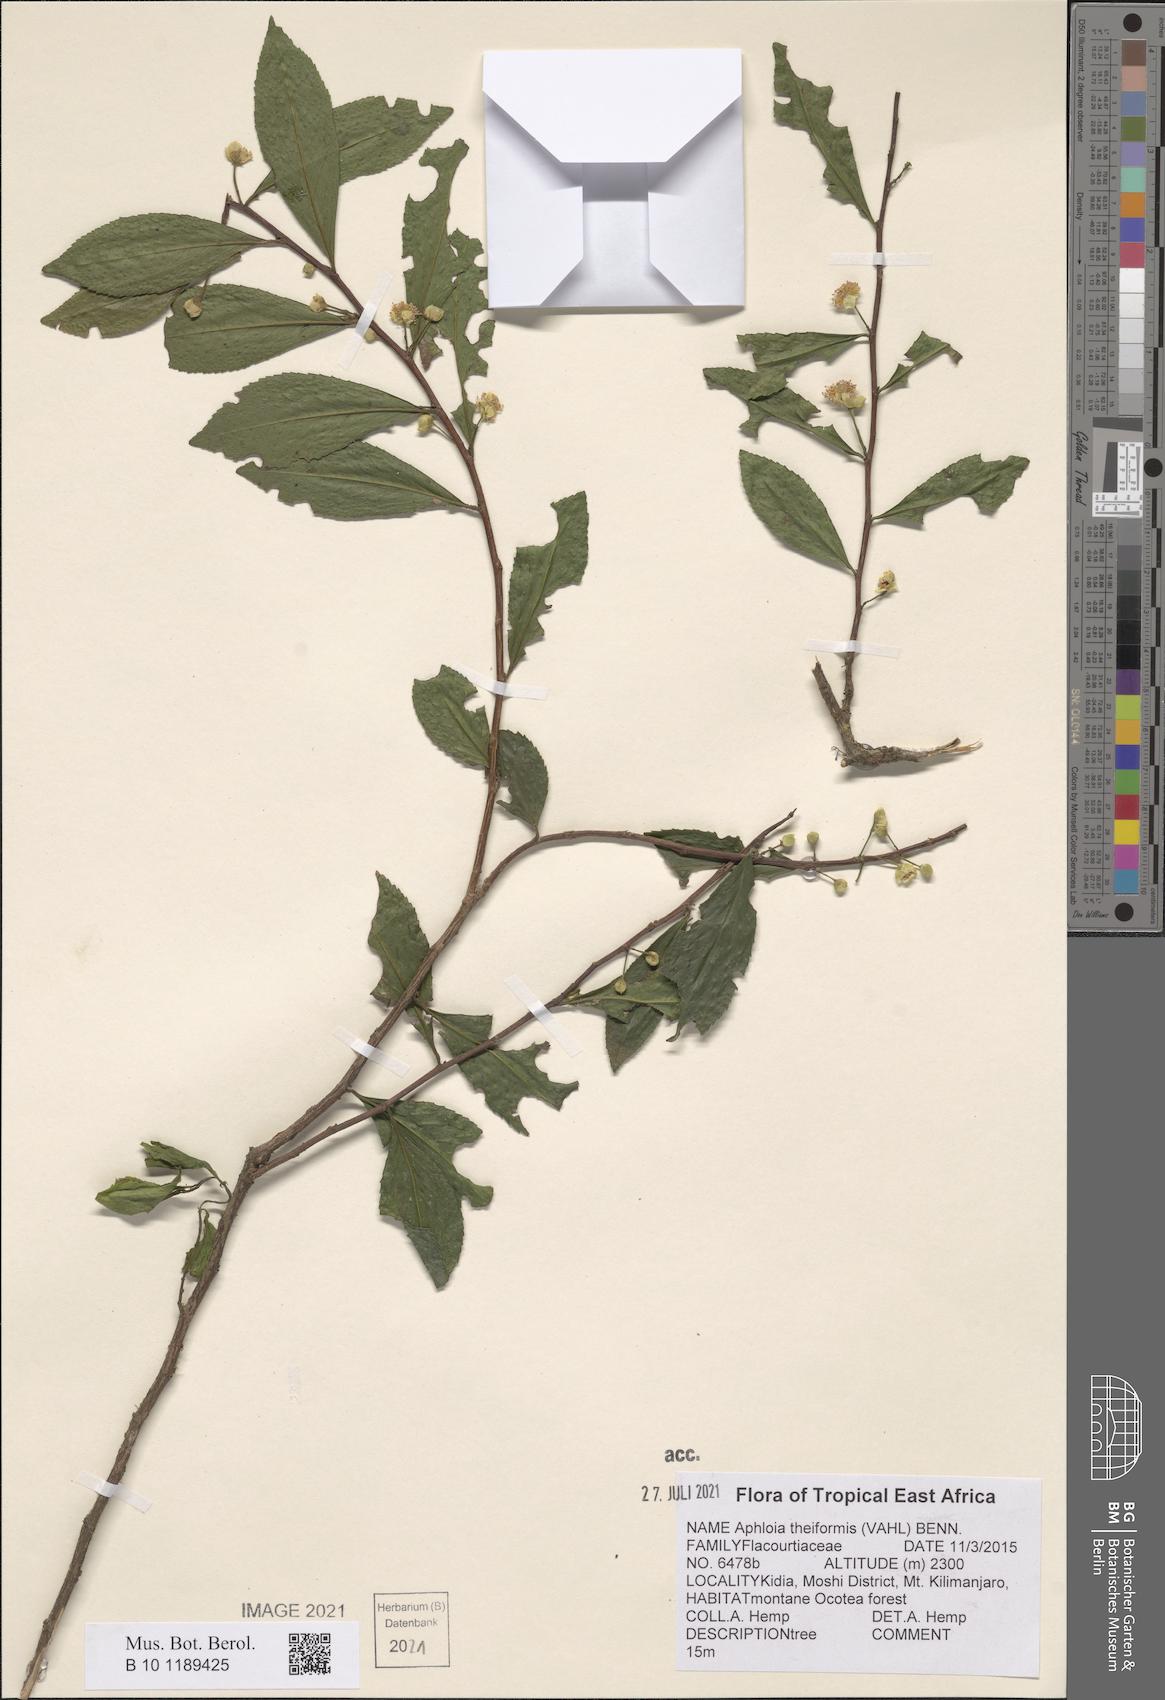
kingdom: Plantae
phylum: Tracheophyta
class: Magnoliopsida
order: Crossosomatales
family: Aphloiaceae
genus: Aphloia
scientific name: Aphloia theiformis
